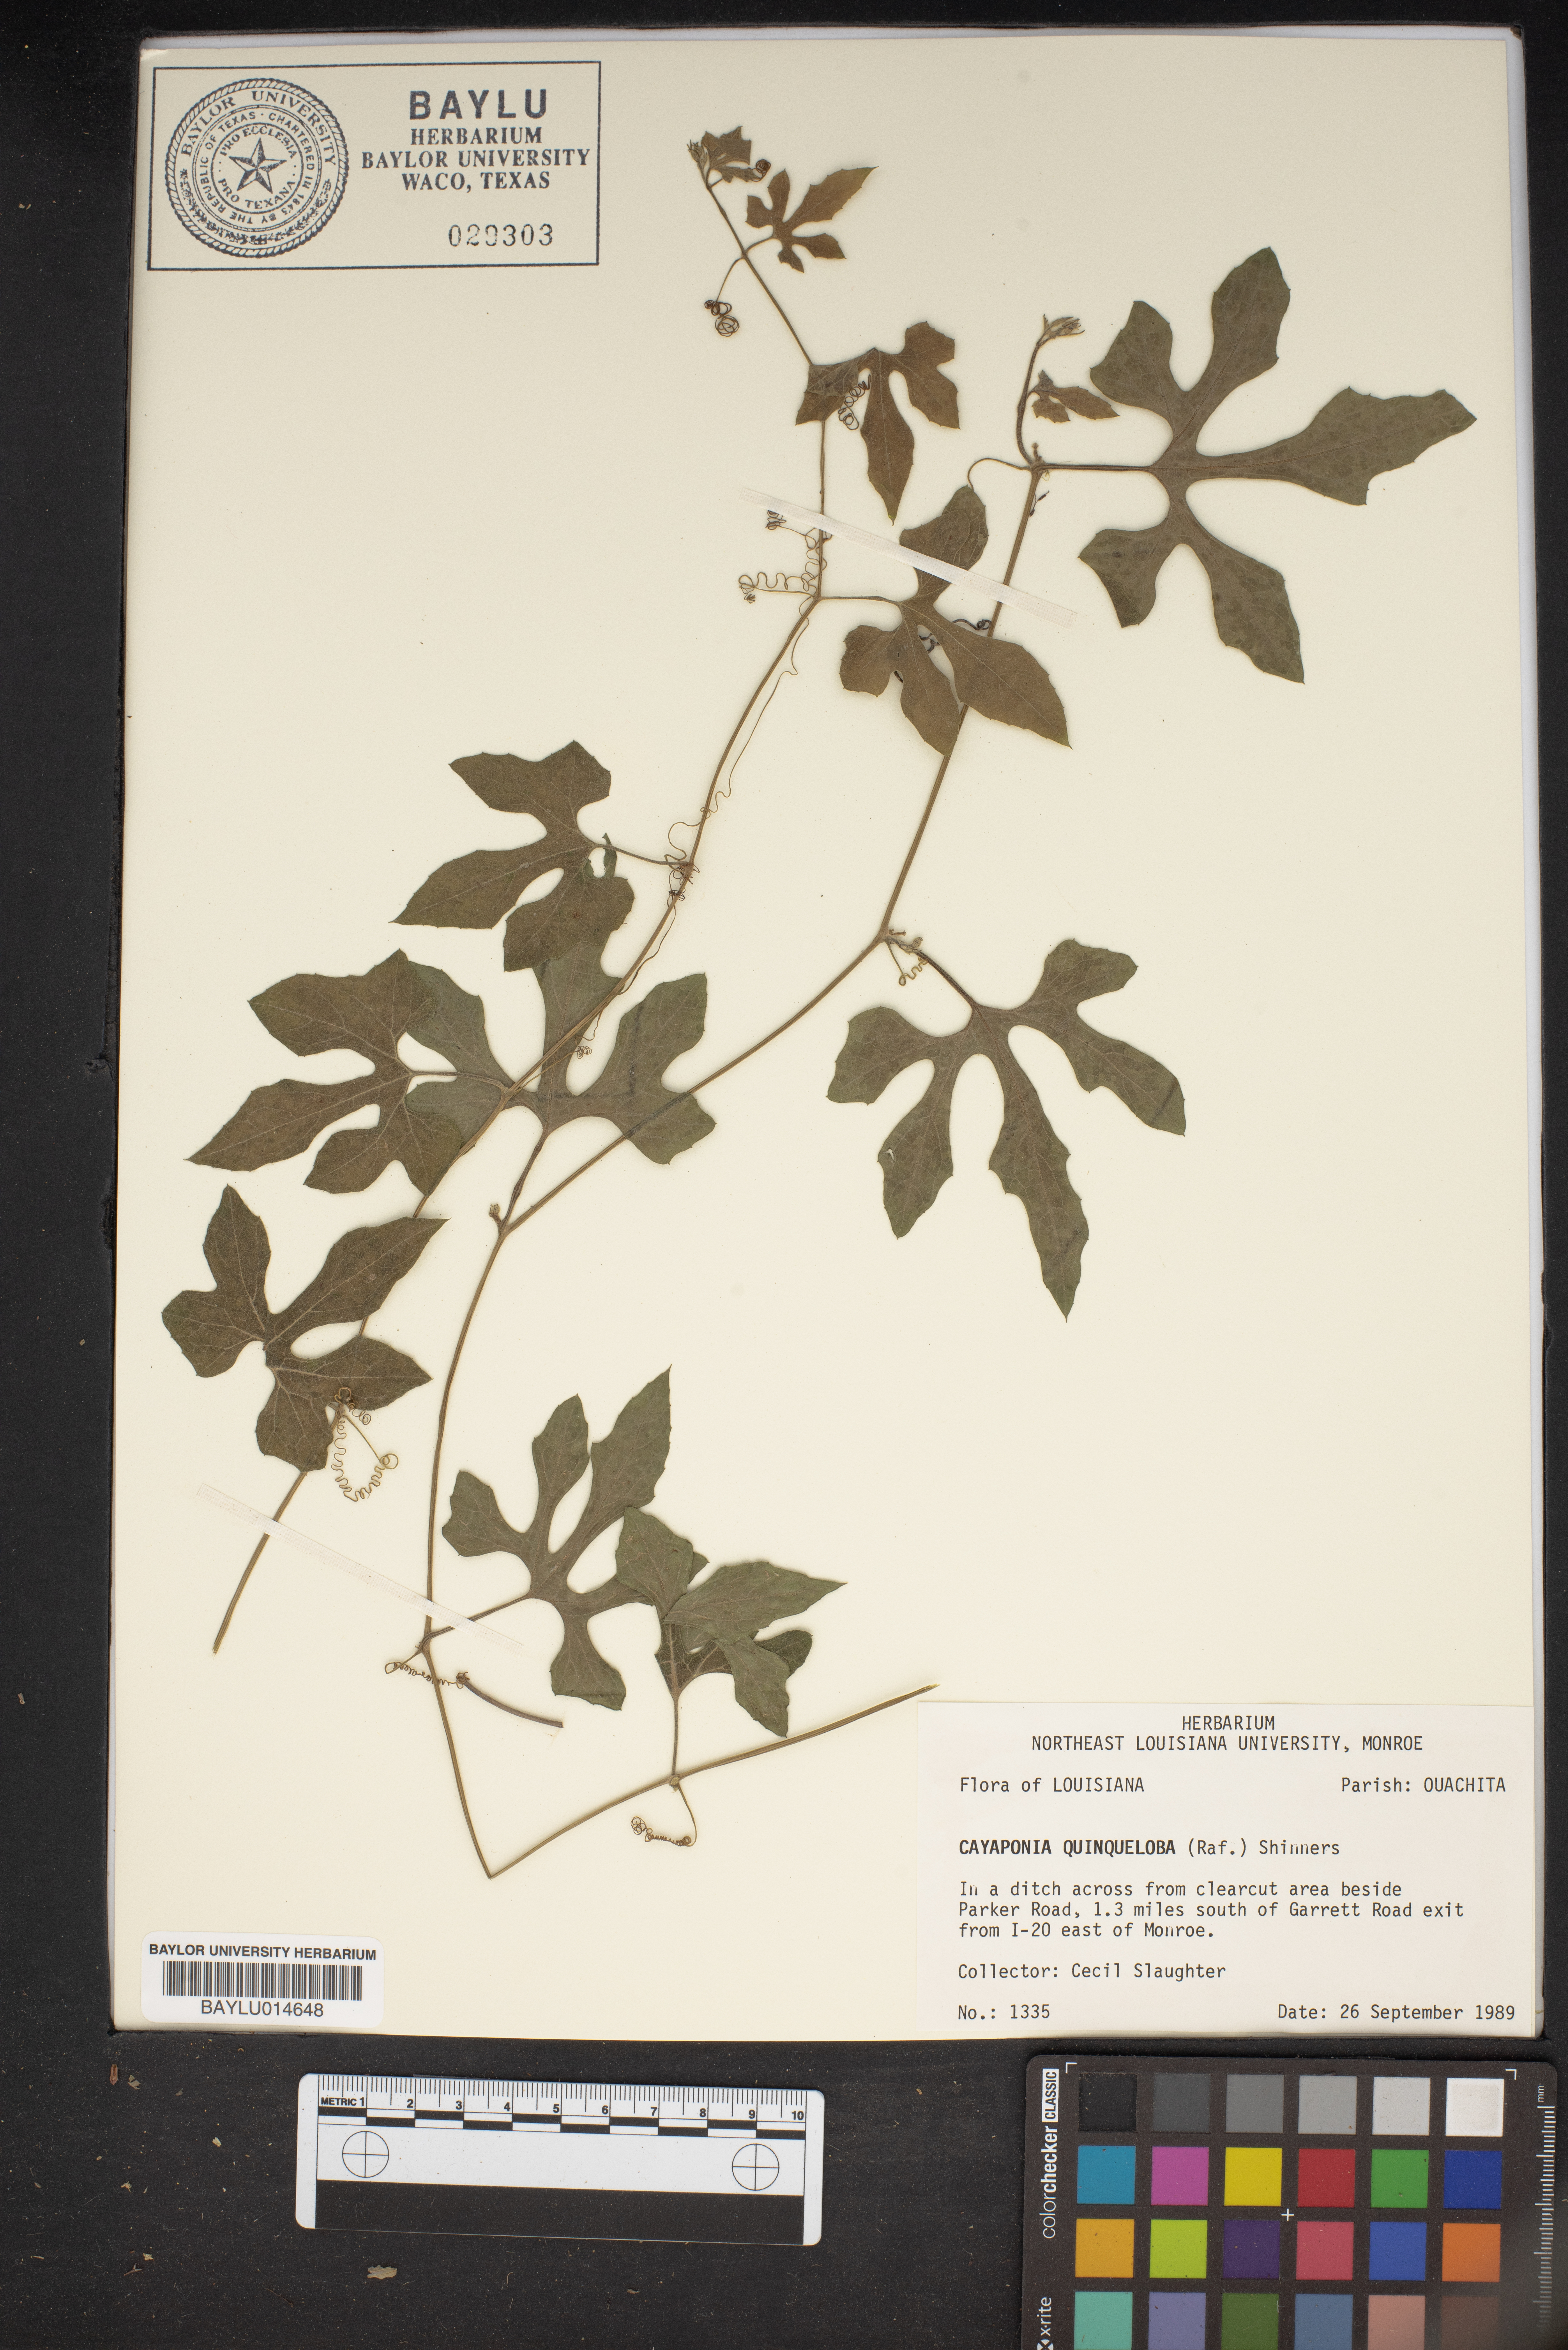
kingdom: Plantae
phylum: Tracheophyta
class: Magnoliopsida
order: Cucurbitales
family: Cucurbitaceae
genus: Cayaponia
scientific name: Cayaponia quinqueloba
